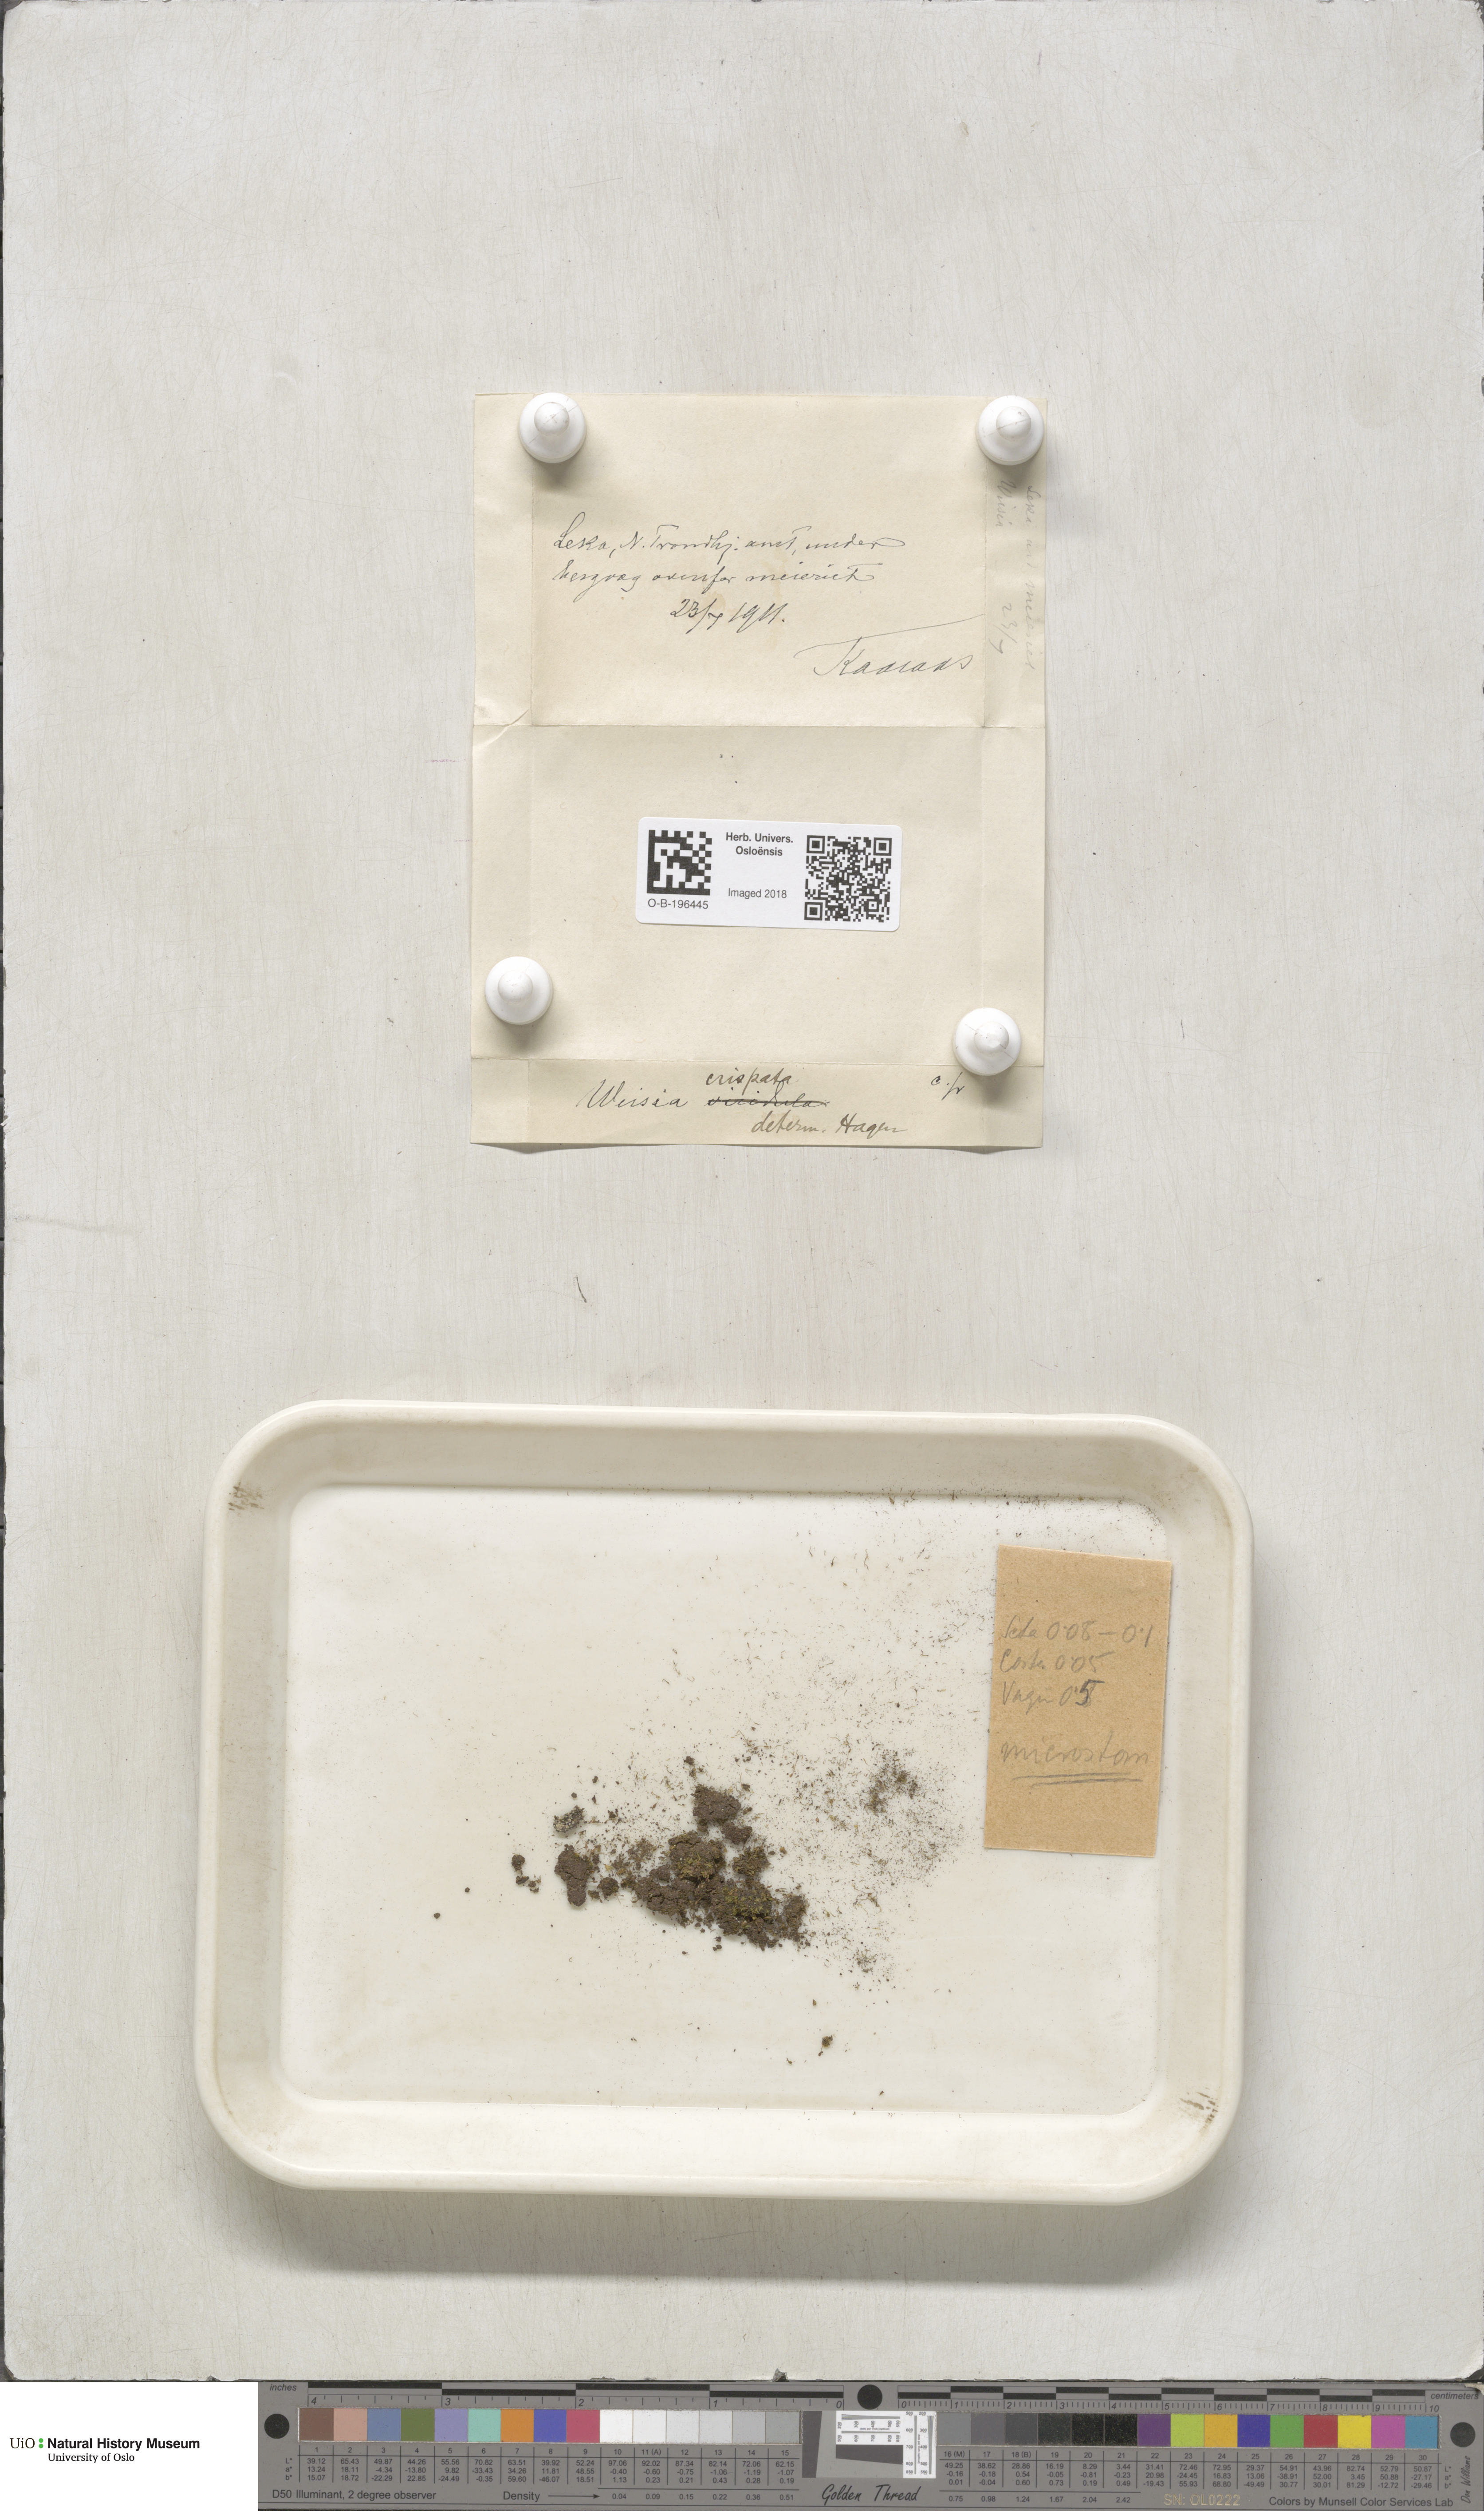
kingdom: Plantae
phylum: Bryophyta
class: Bryopsida
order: Pottiales
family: Pottiaceae
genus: Weissia
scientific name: Weissia controversa
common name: Green-tufted stubble moss
